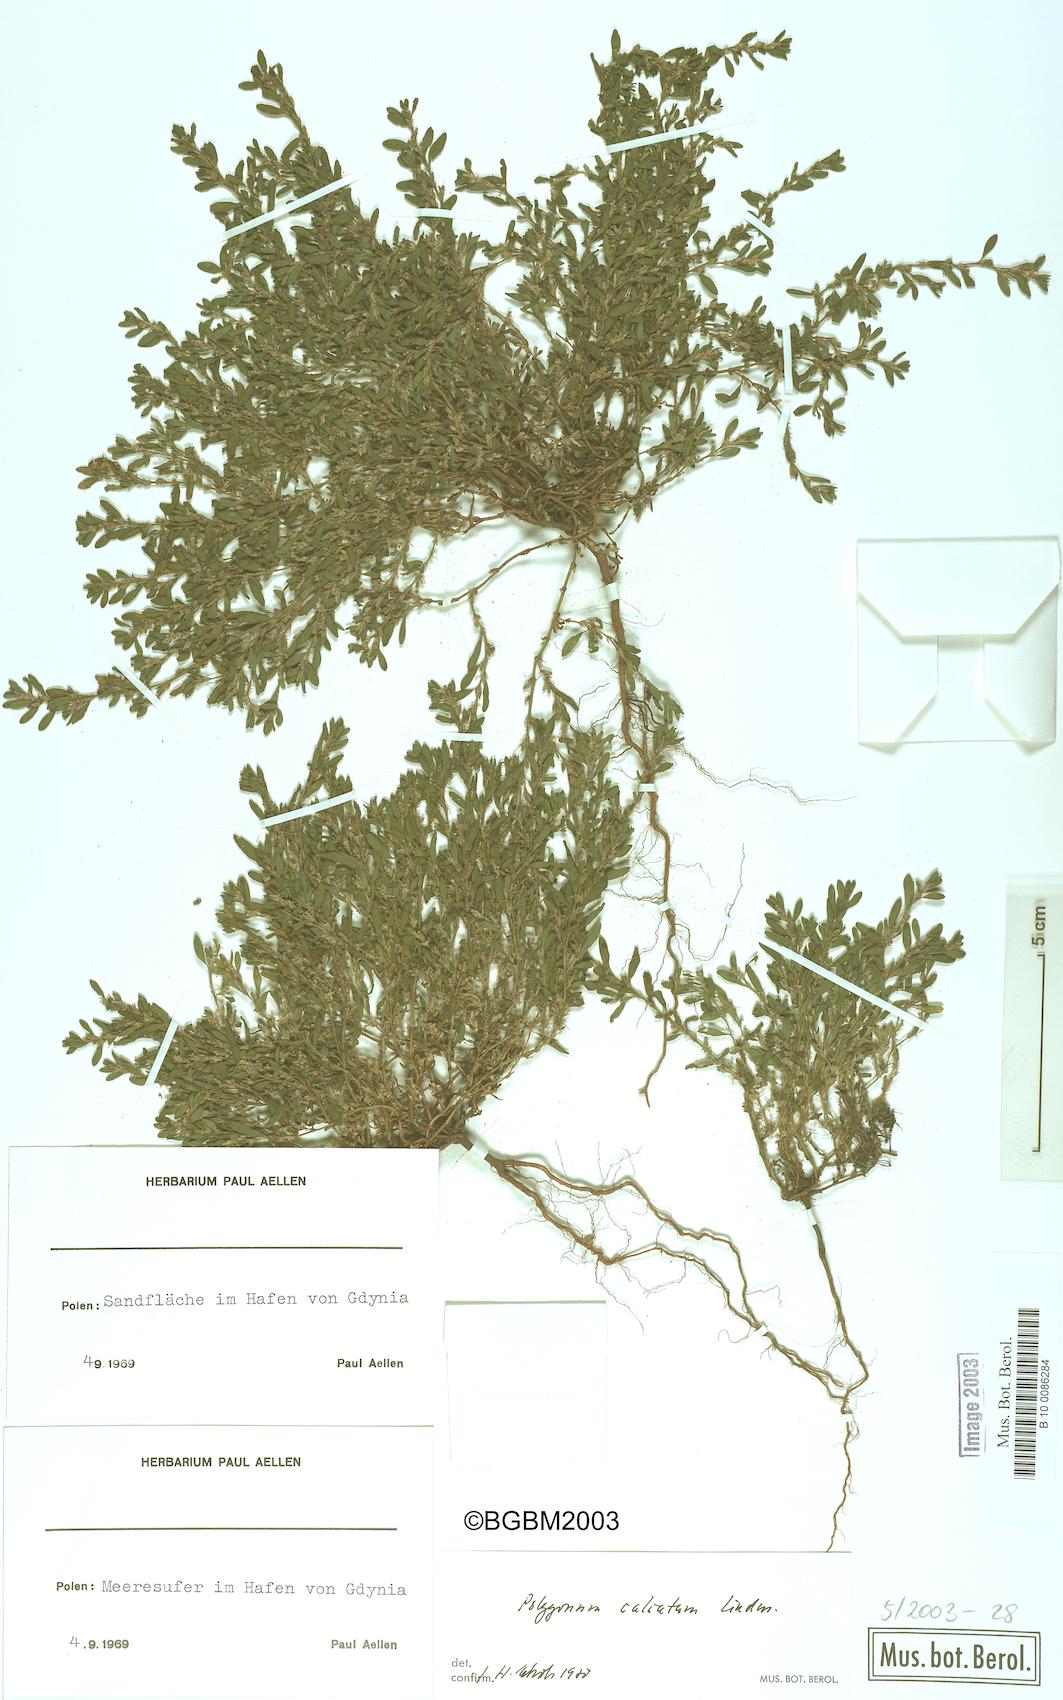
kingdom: Plantae
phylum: Tracheophyta
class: Magnoliopsida
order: Caryophyllales
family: Polygonaceae
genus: Polygonum
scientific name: Polygonum arenastrum
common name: Equal-leaved knotgrass
